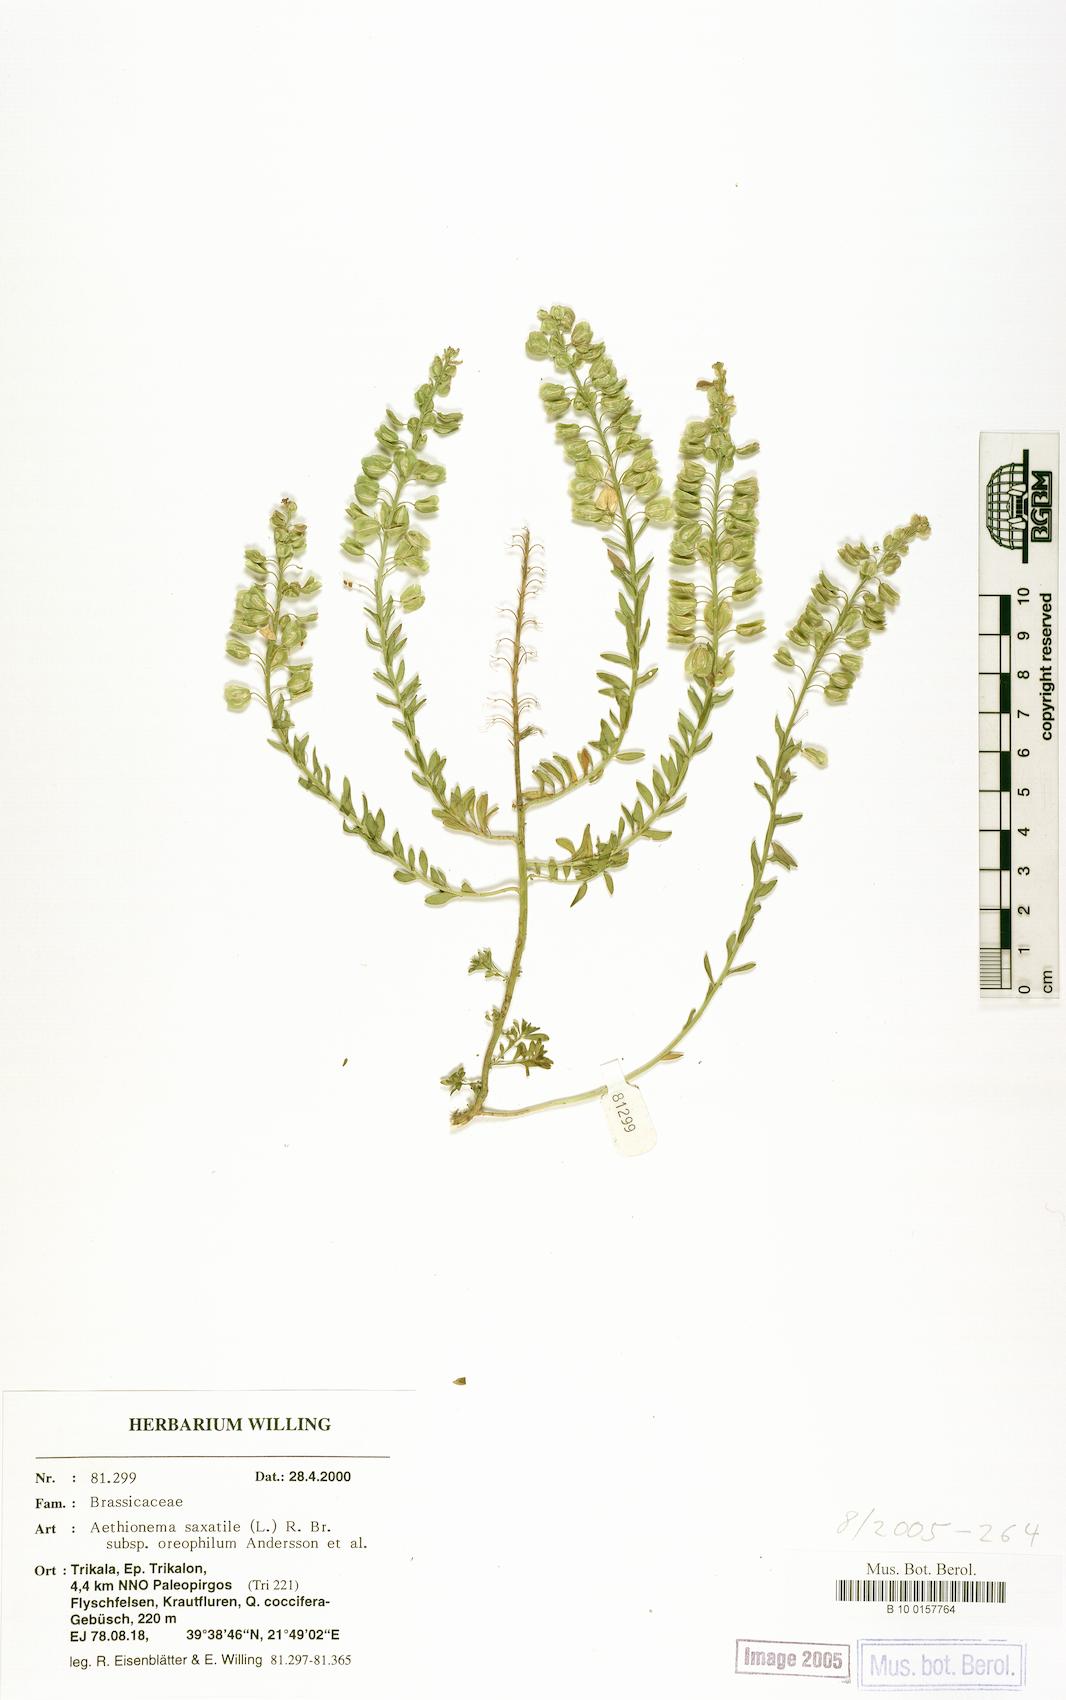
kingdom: Plantae
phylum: Tracheophyta
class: Magnoliopsida
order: Brassicales
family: Brassicaceae
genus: Aethionema
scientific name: Aethionema saxatile
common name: Burnt candytuft
